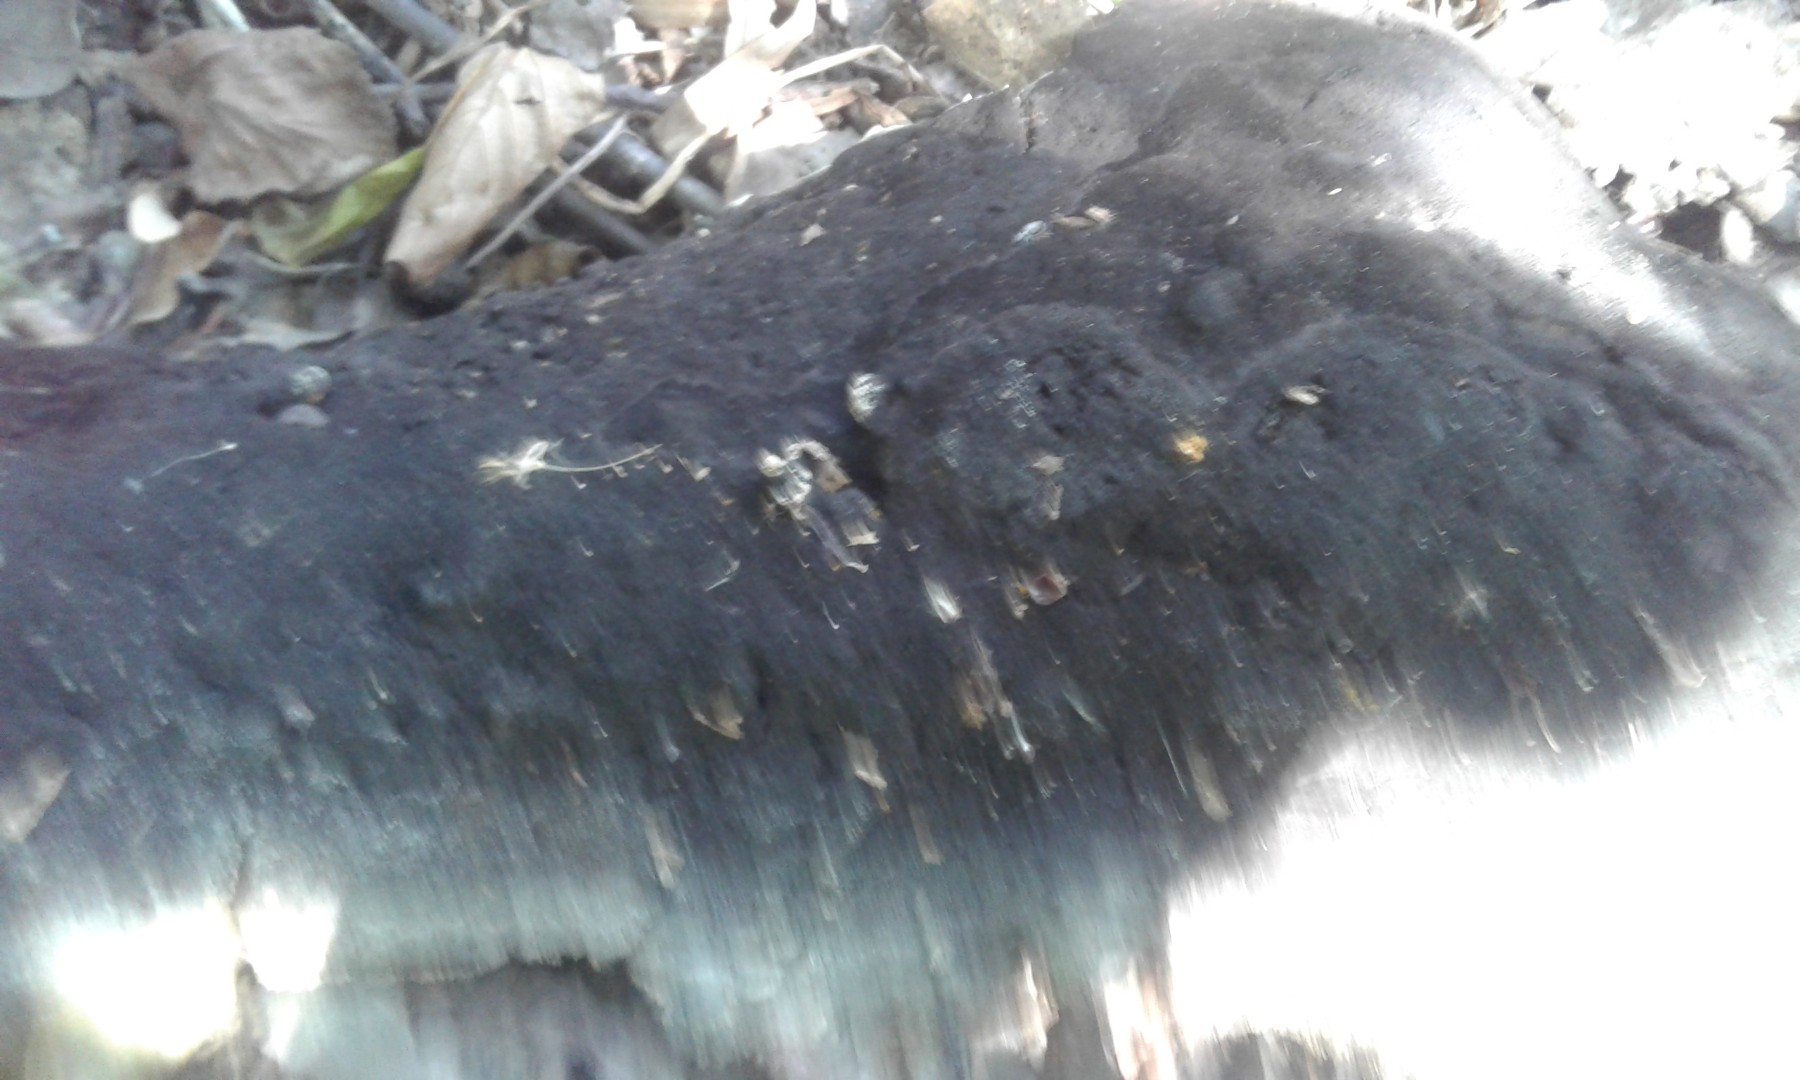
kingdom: Fungi
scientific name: Fungi
